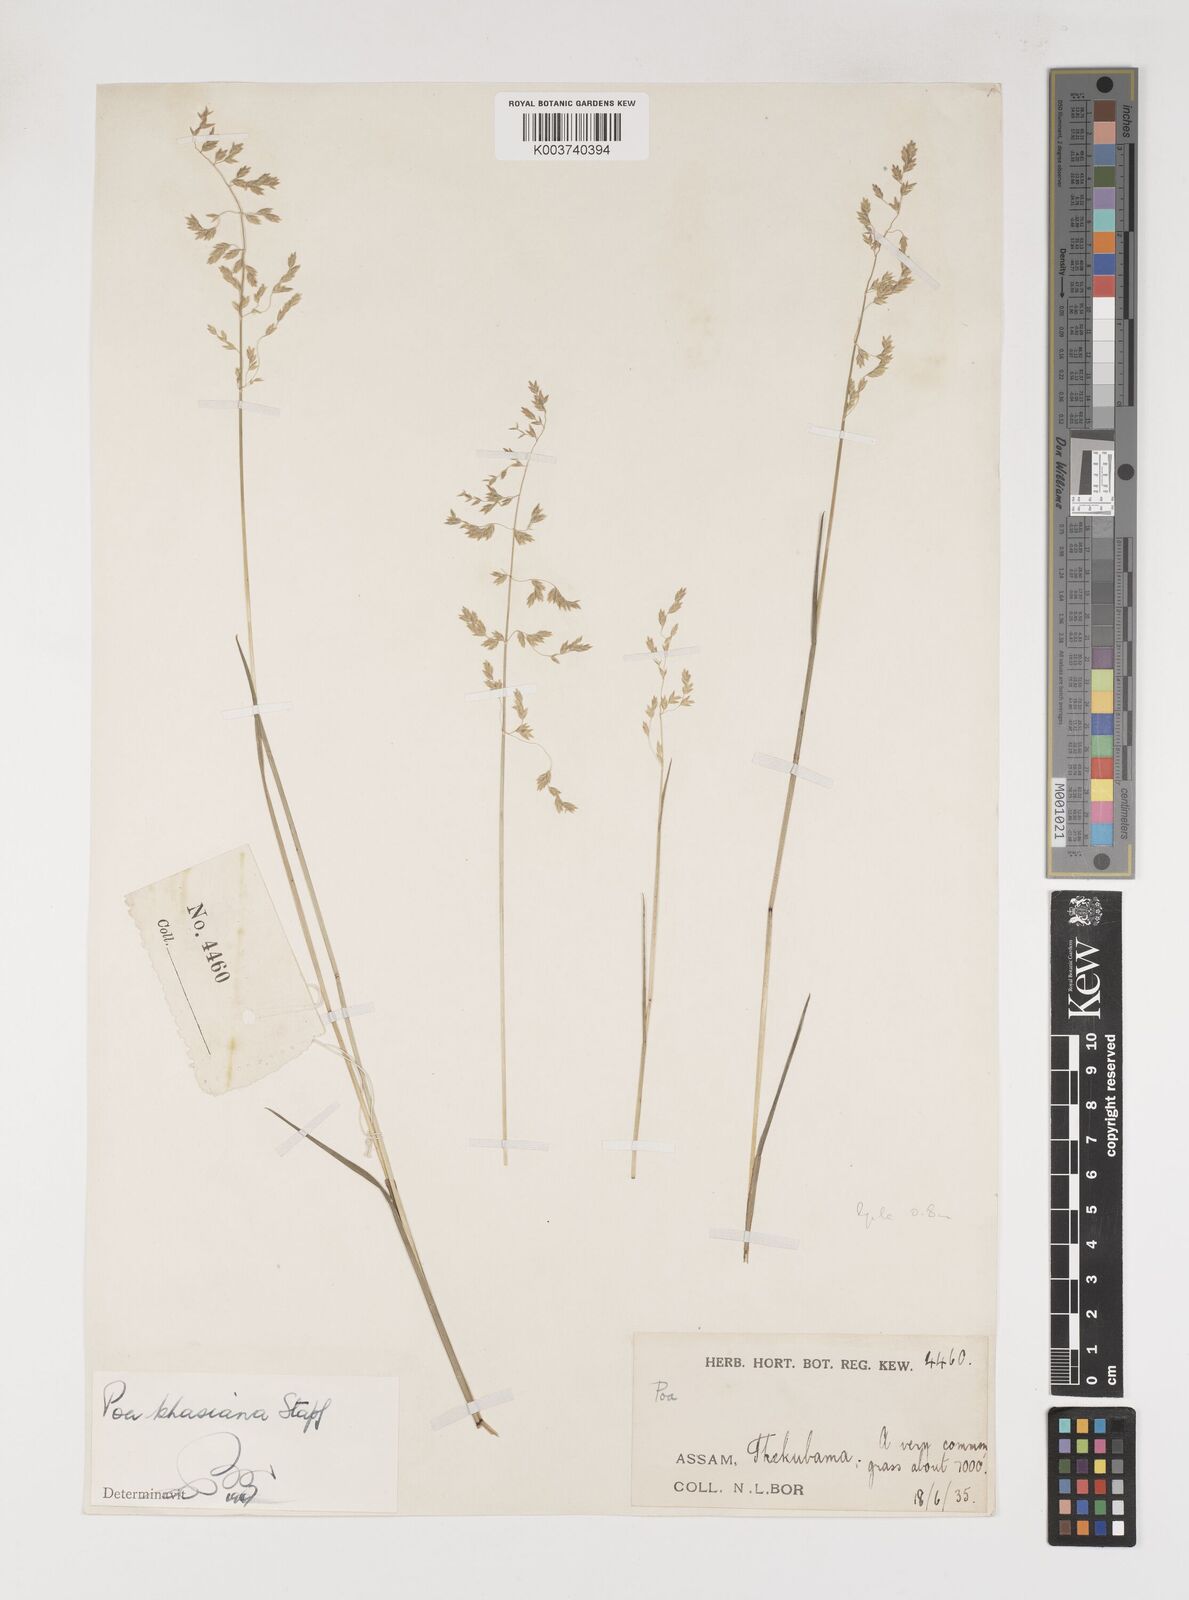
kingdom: Plantae
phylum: Tracheophyta
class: Liliopsida
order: Poales
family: Poaceae
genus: Poa
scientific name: Poa khasiana
